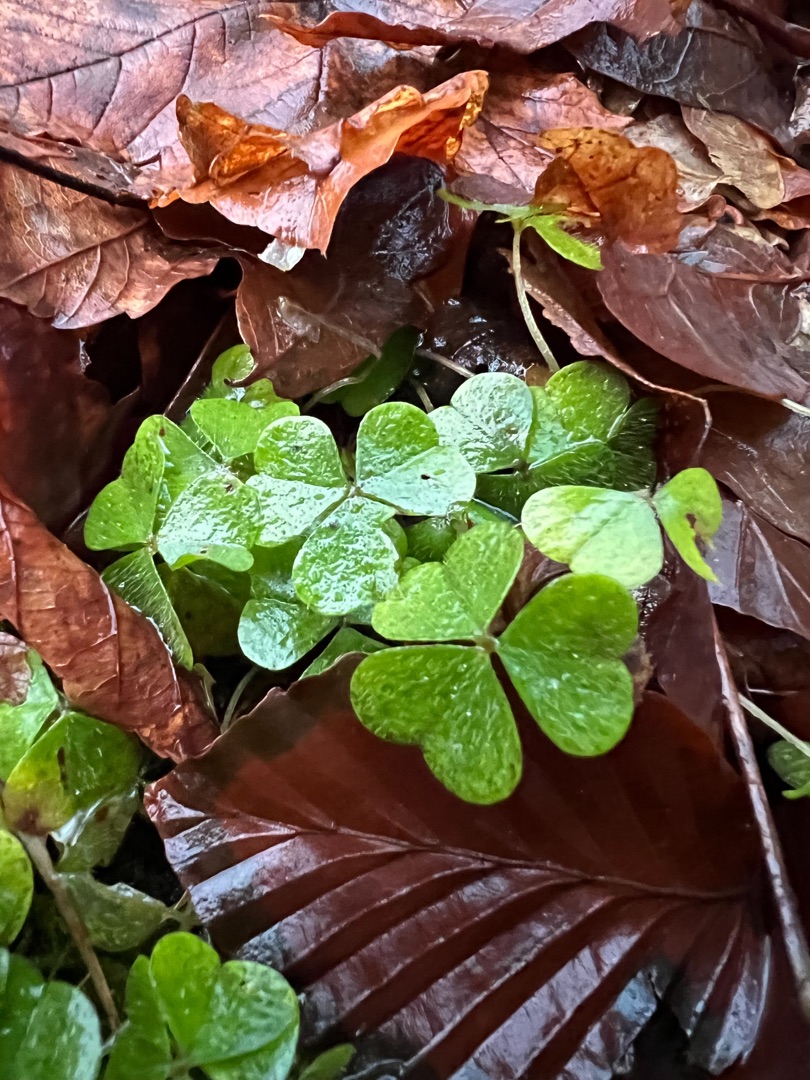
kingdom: Plantae
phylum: Tracheophyta
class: Magnoliopsida
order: Oxalidales
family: Oxalidaceae
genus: Oxalis
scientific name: Oxalis acetosella
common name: Skovsyre
